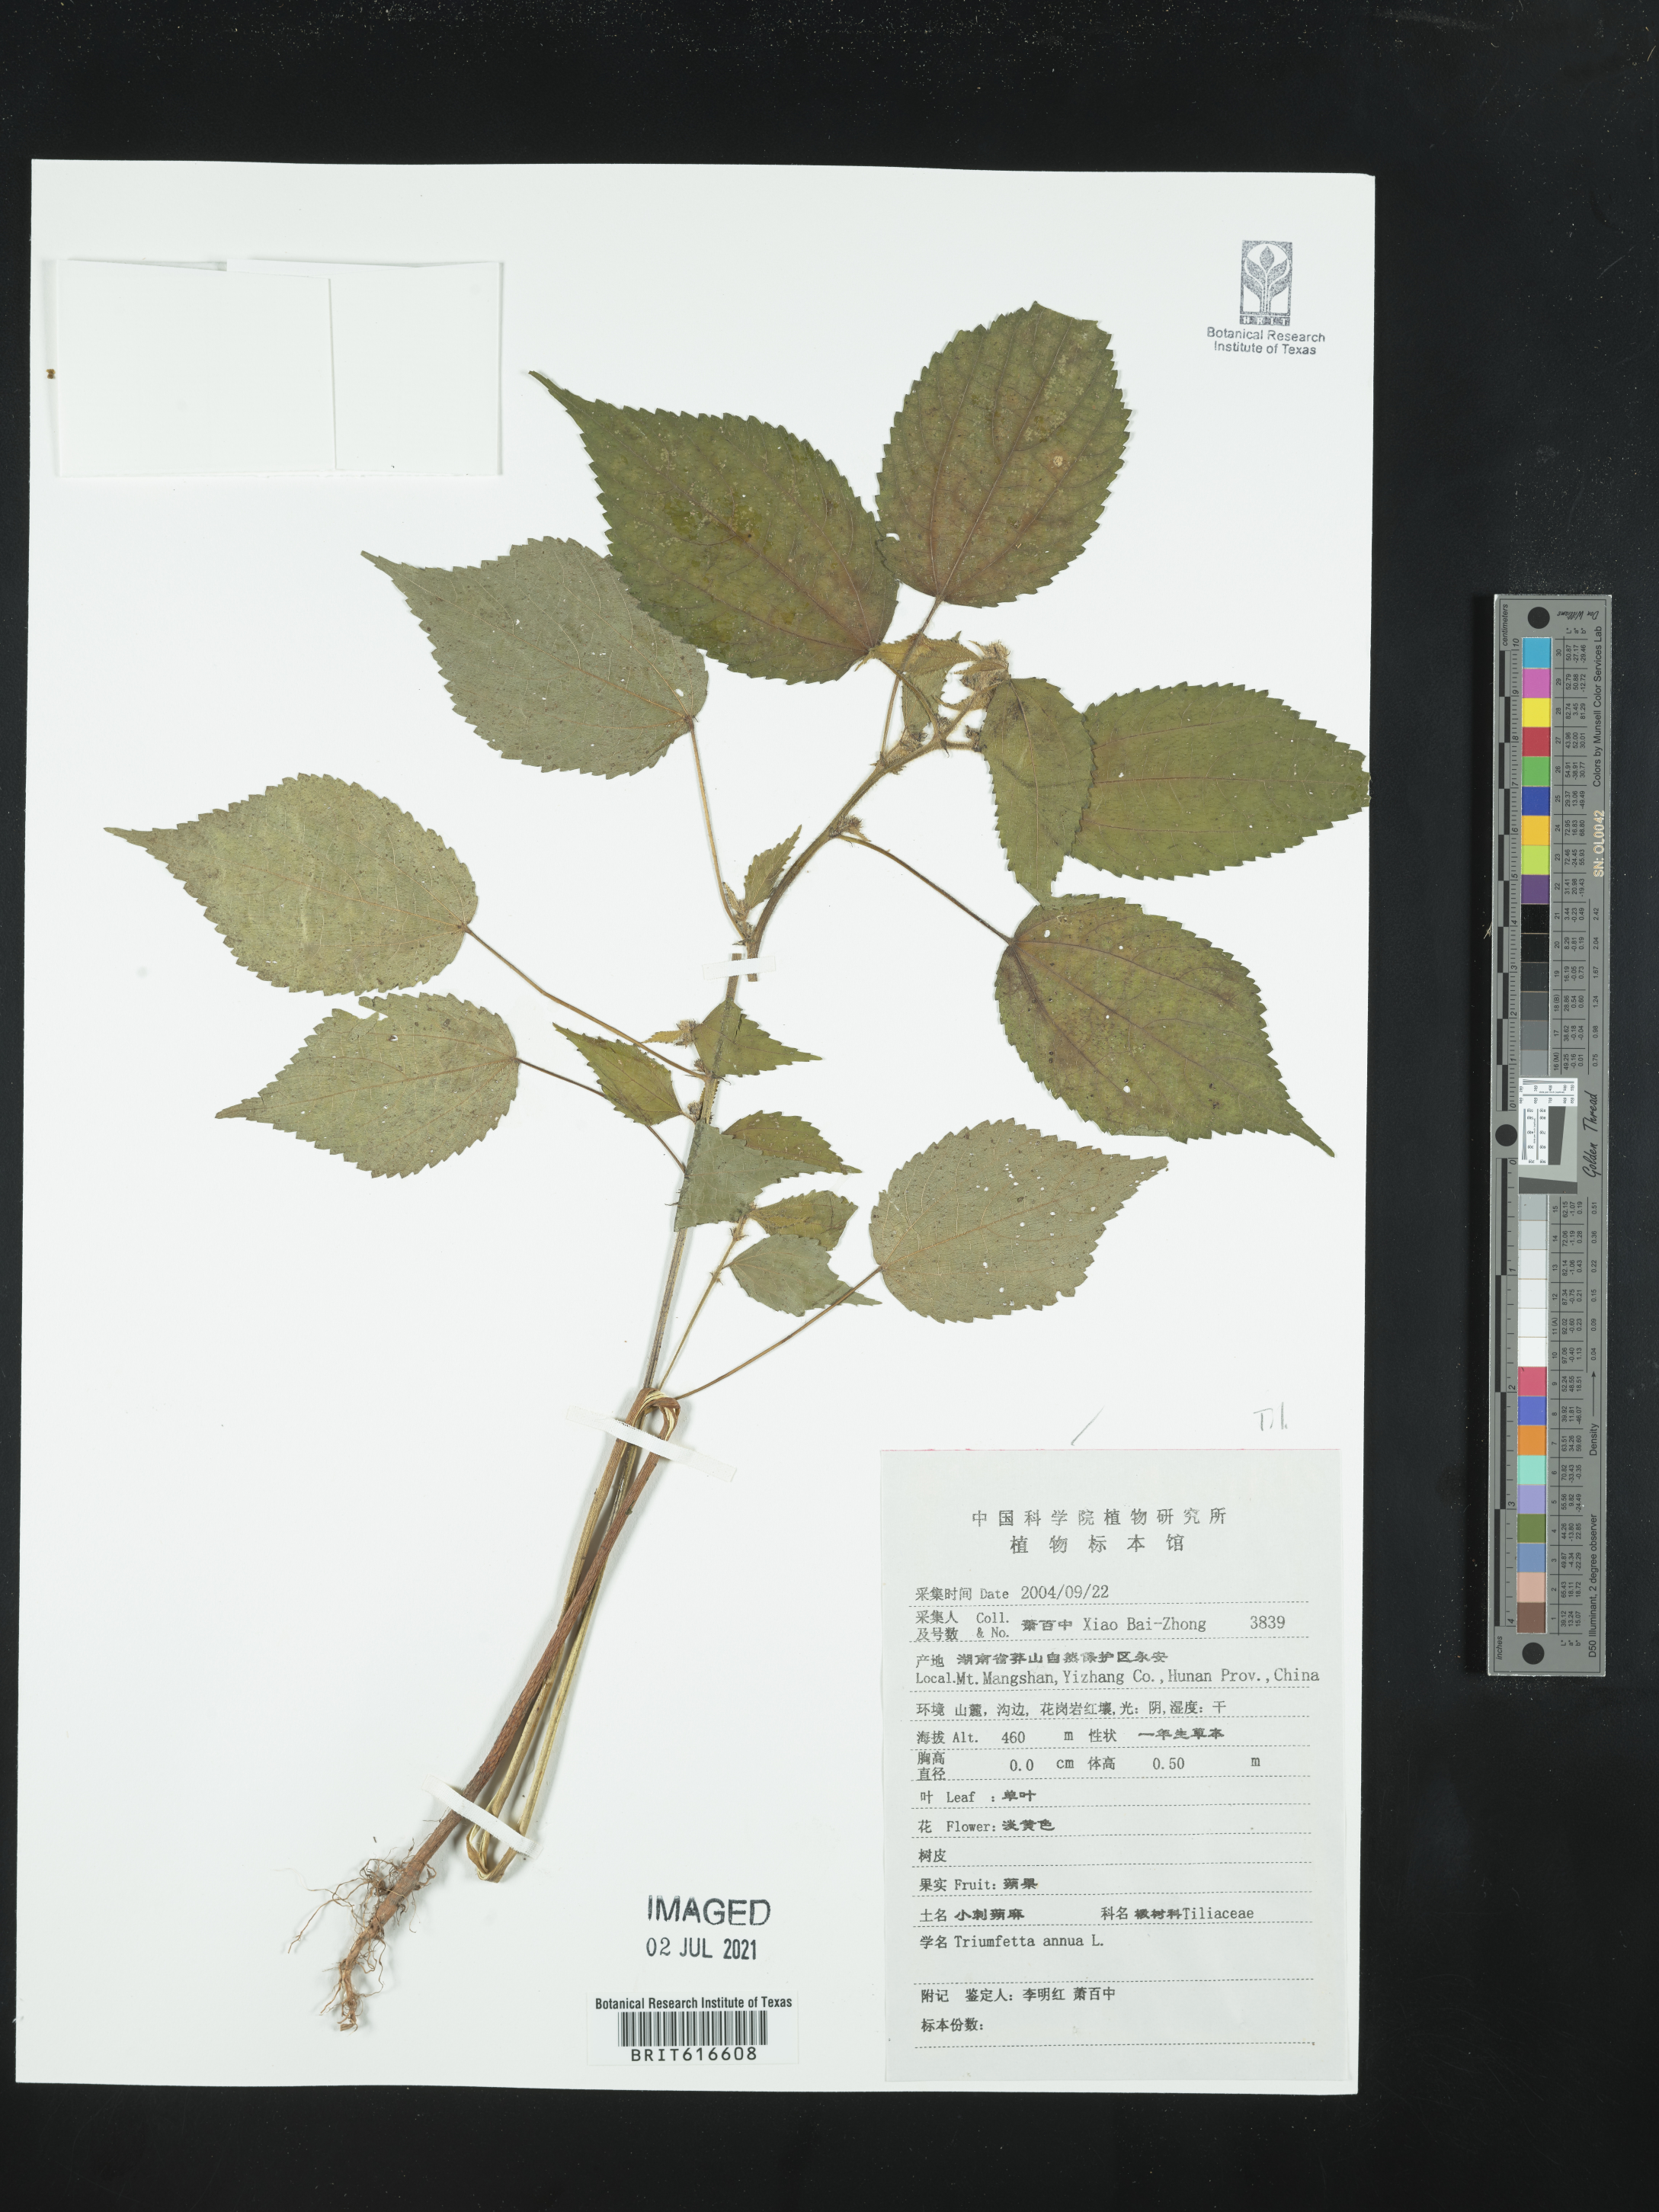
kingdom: Plantae
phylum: Tracheophyta
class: Magnoliopsida
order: Malvales
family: Malvaceae
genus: Triumfetta
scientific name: Triumfetta annua
